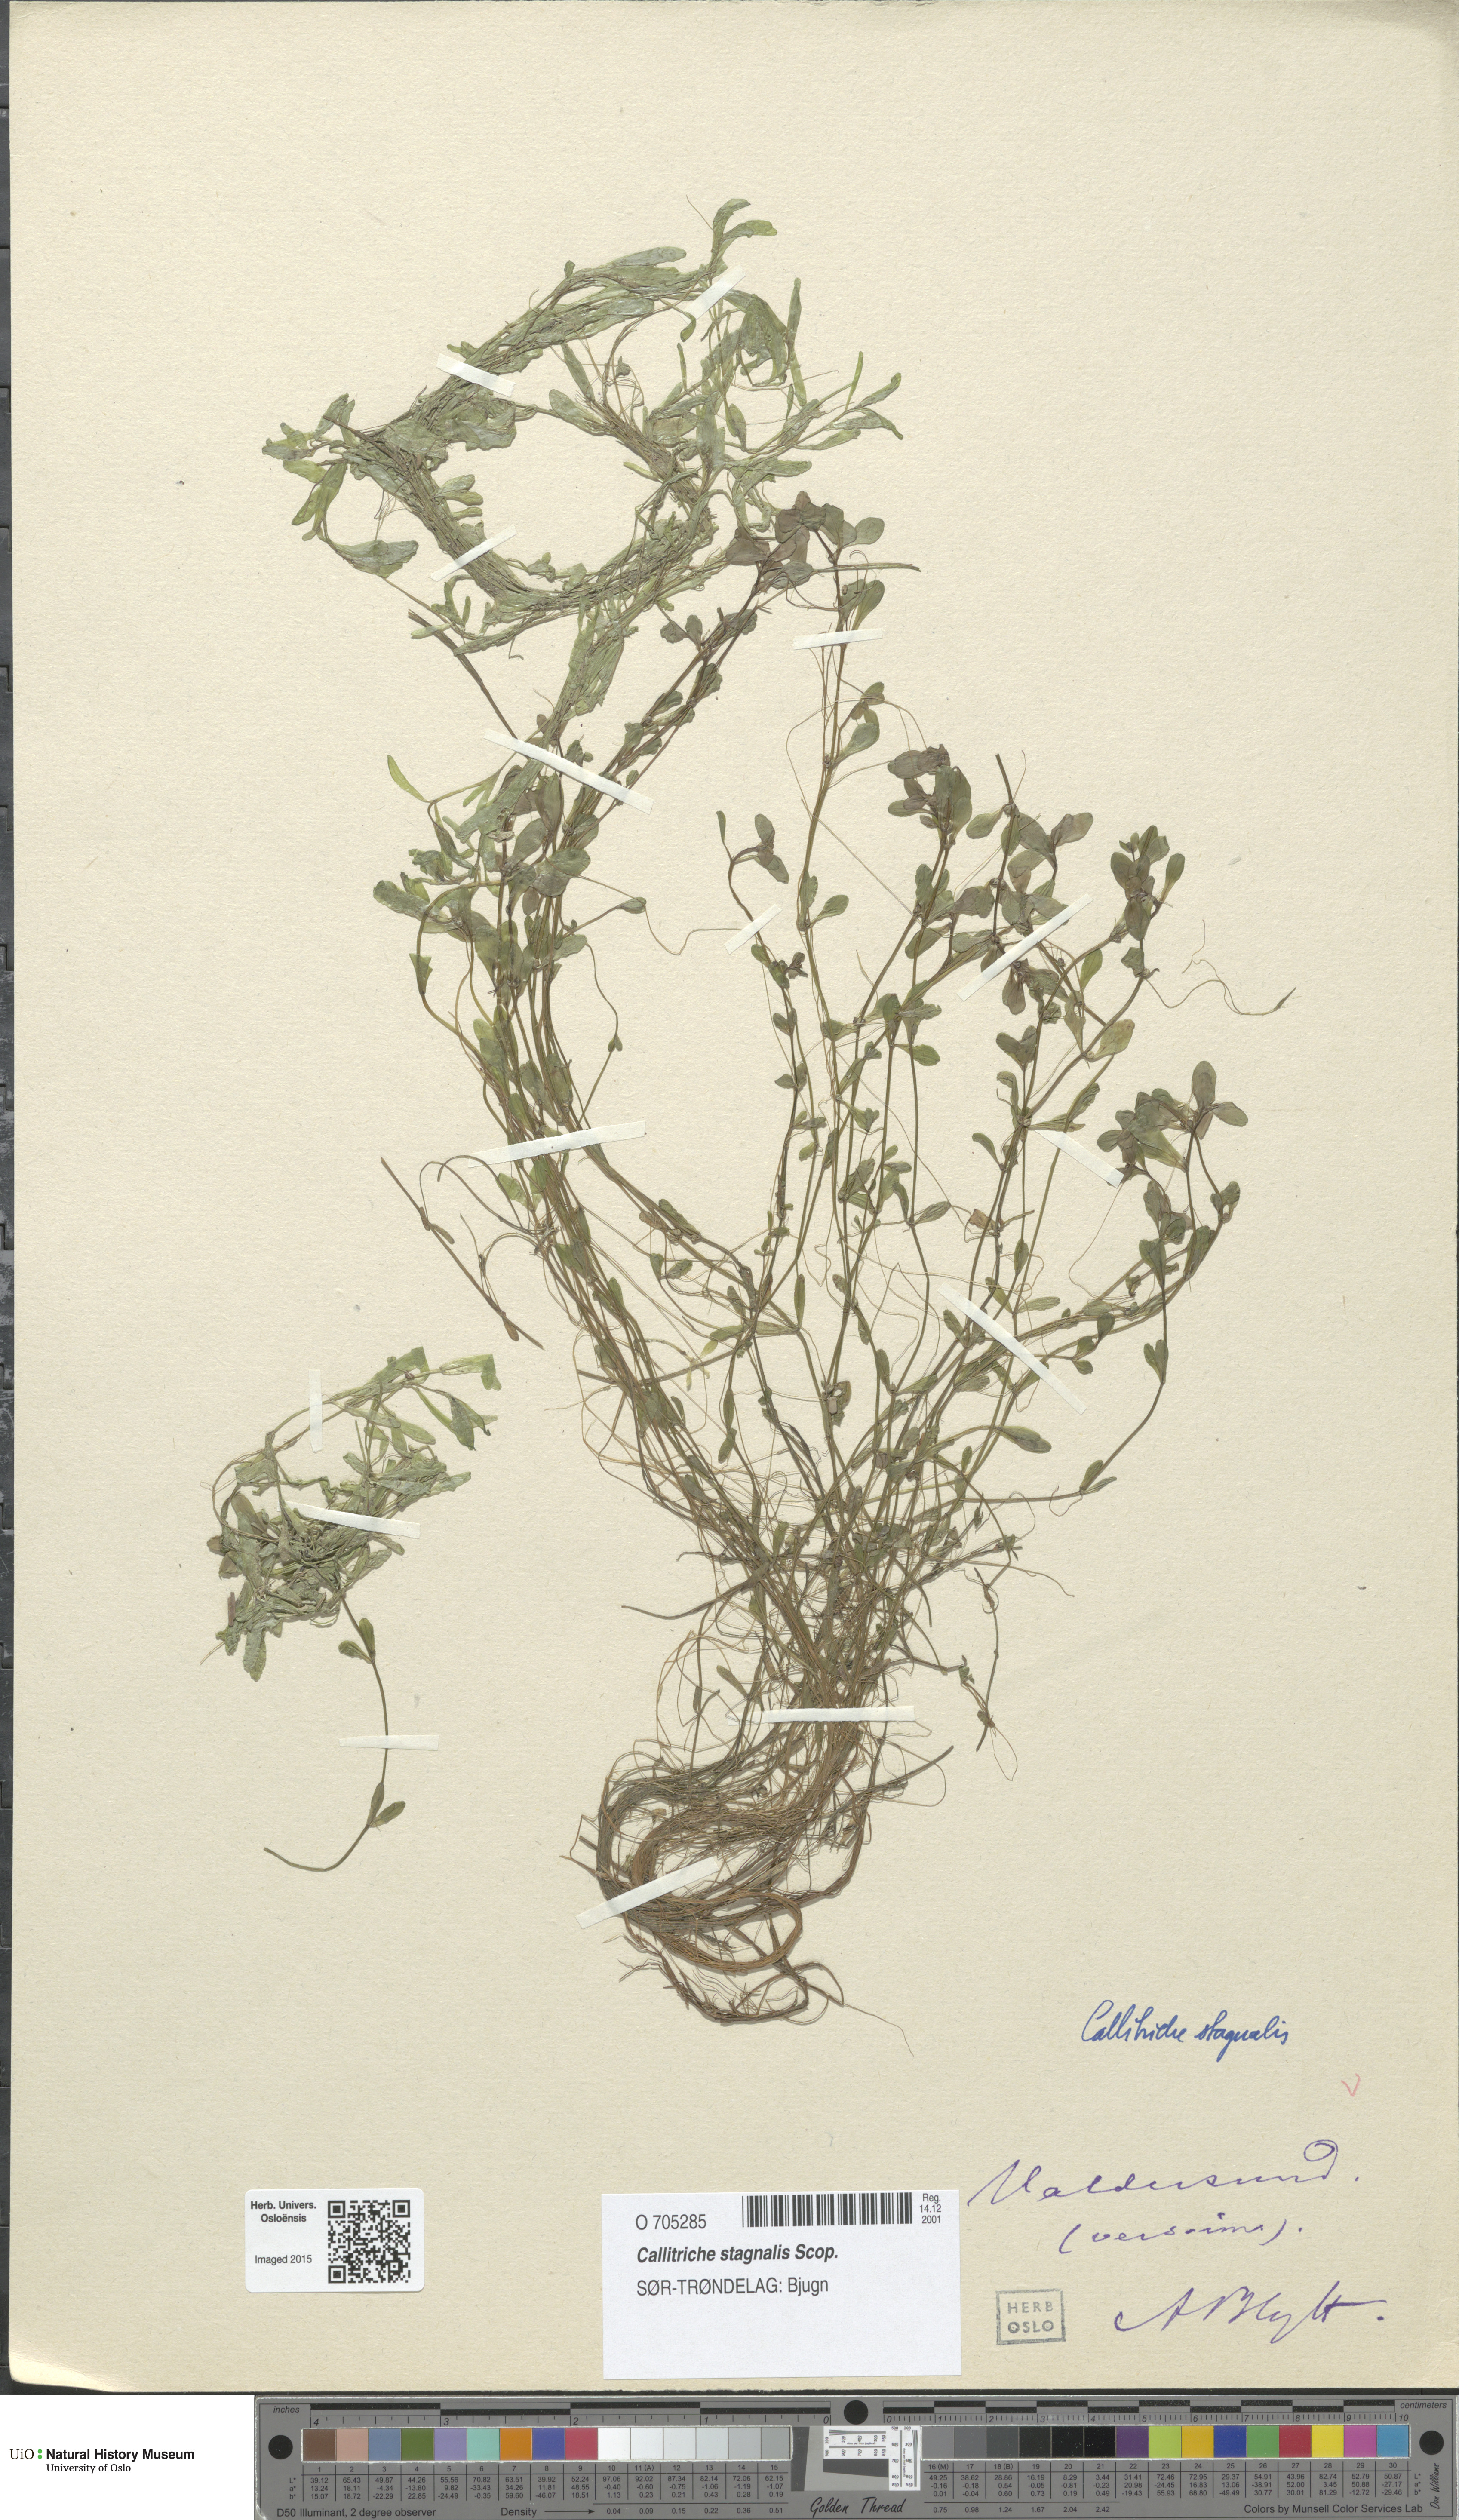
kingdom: Plantae
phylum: Tracheophyta
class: Magnoliopsida
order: Lamiales
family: Plantaginaceae
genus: Callitriche
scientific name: Callitriche stagnalis
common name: Common water-starwort
